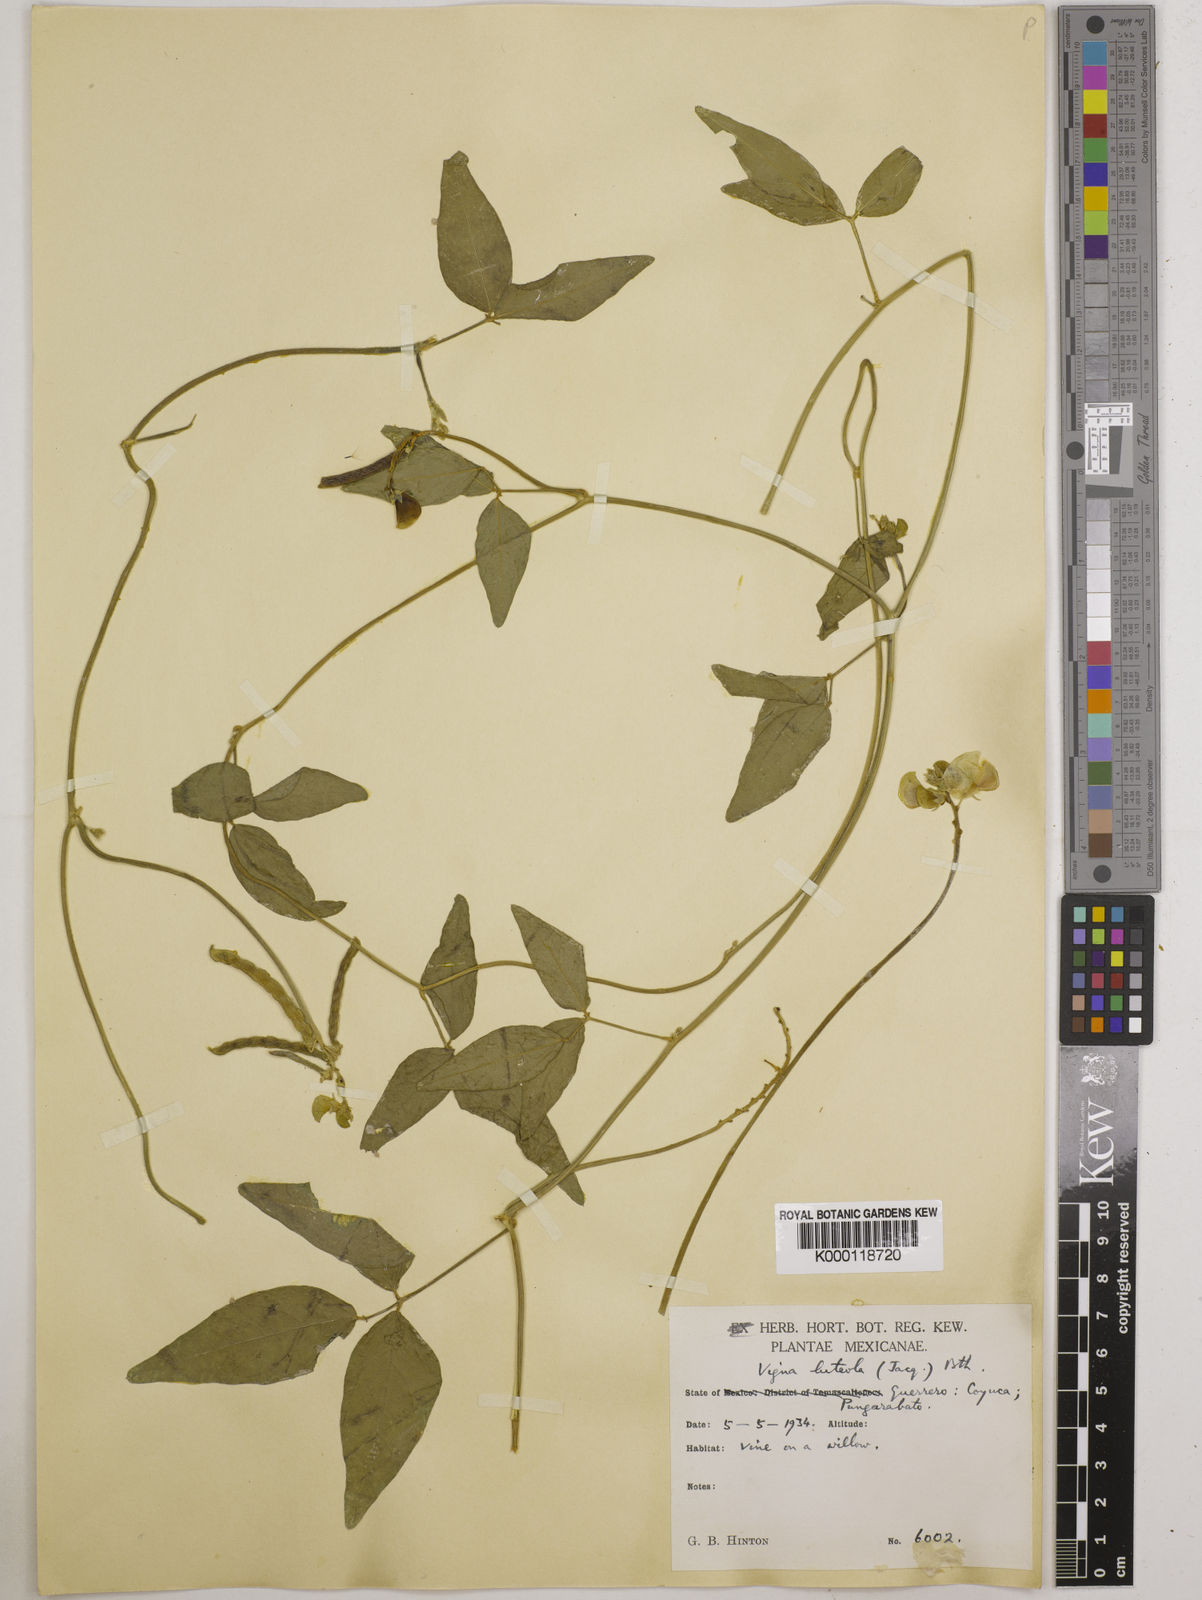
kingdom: Plantae
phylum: Tracheophyta
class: Magnoliopsida
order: Fabales
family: Fabaceae
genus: Vigna
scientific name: Vigna luteola
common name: Hairypod cowpea
